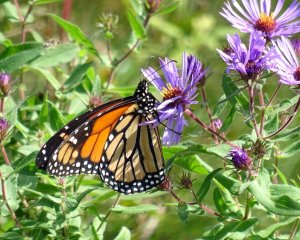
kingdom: Animalia
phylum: Arthropoda
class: Insecta
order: Lepidoptera
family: Nymphalidae
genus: Danaus
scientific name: Danaus plexippus
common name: Monarch
